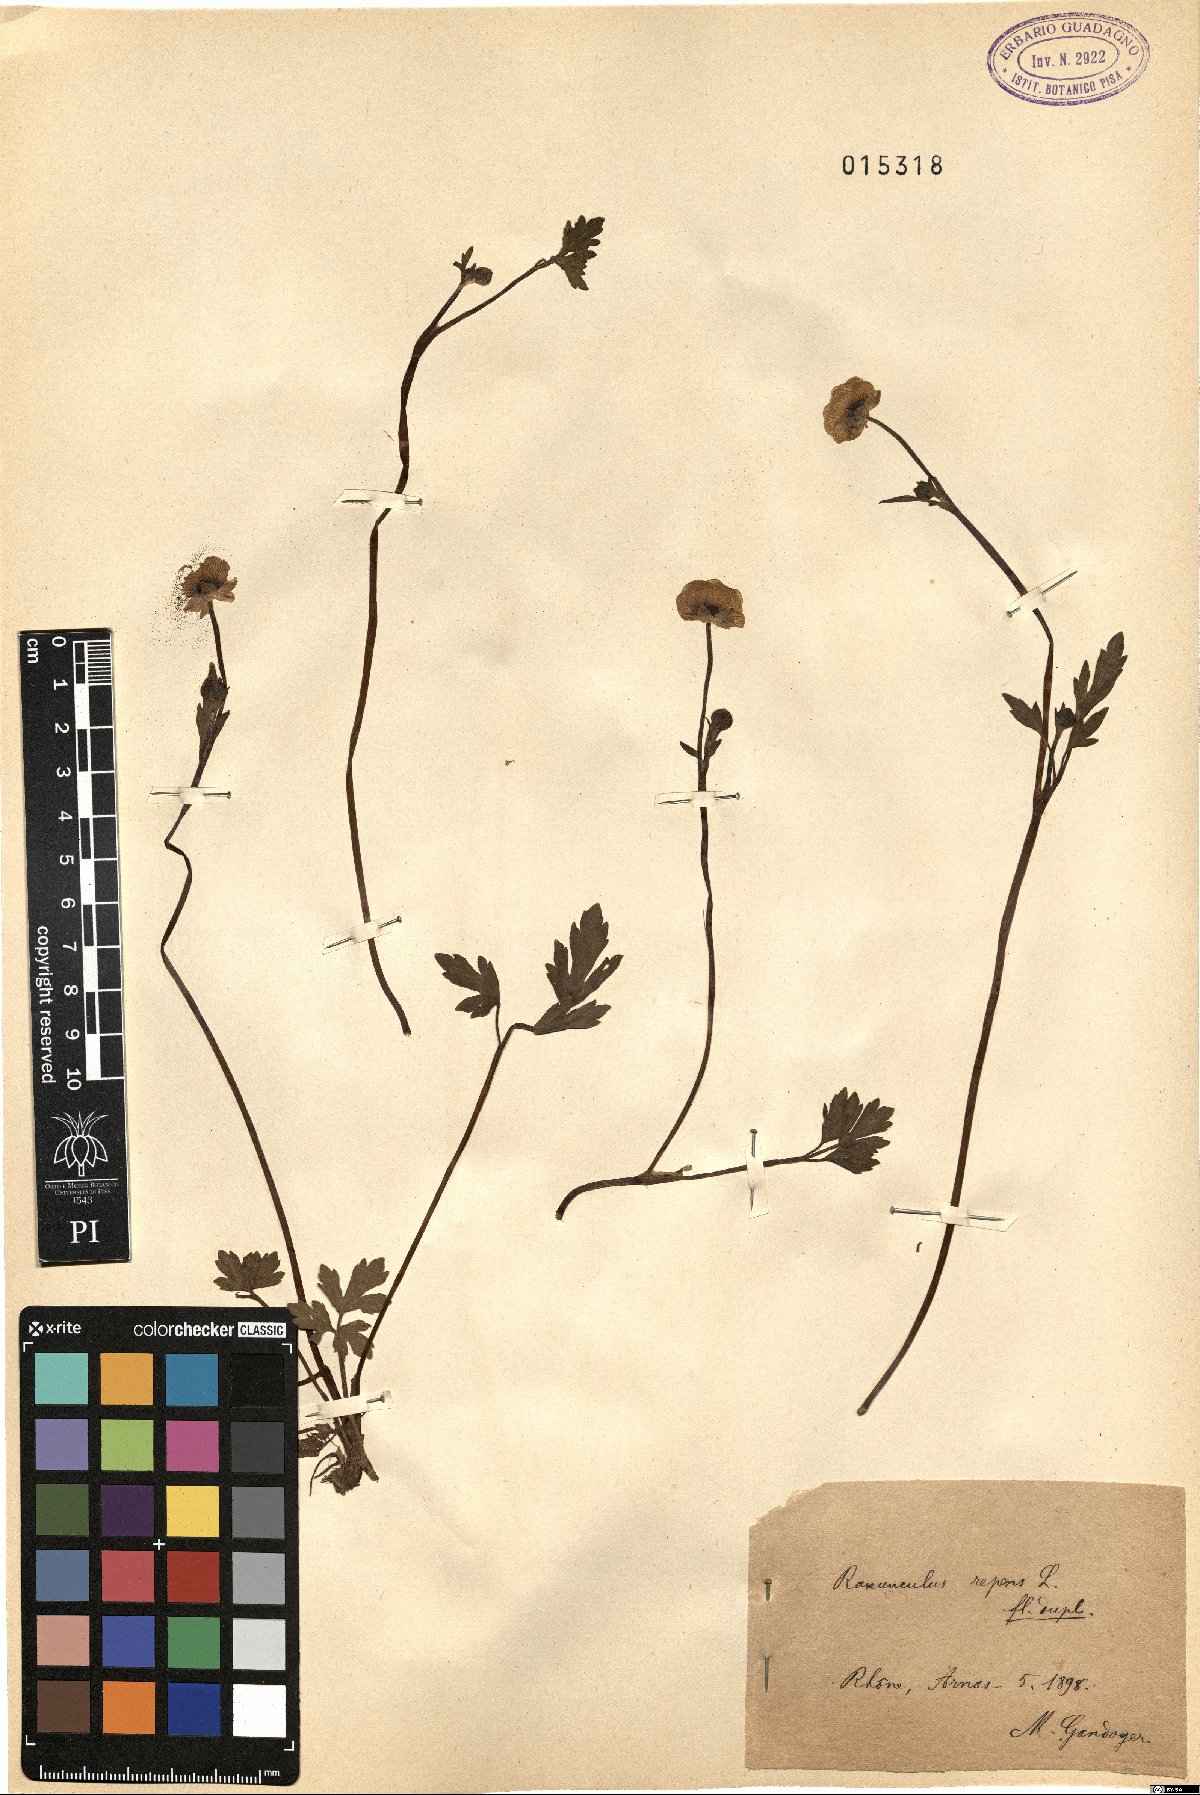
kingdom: Plantae
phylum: Tracheophyta
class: Magnoliopsida
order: Ranunculales
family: Ranunculaceae
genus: Ranunculus
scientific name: Ranunculus repens
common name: Creeping buttercup
